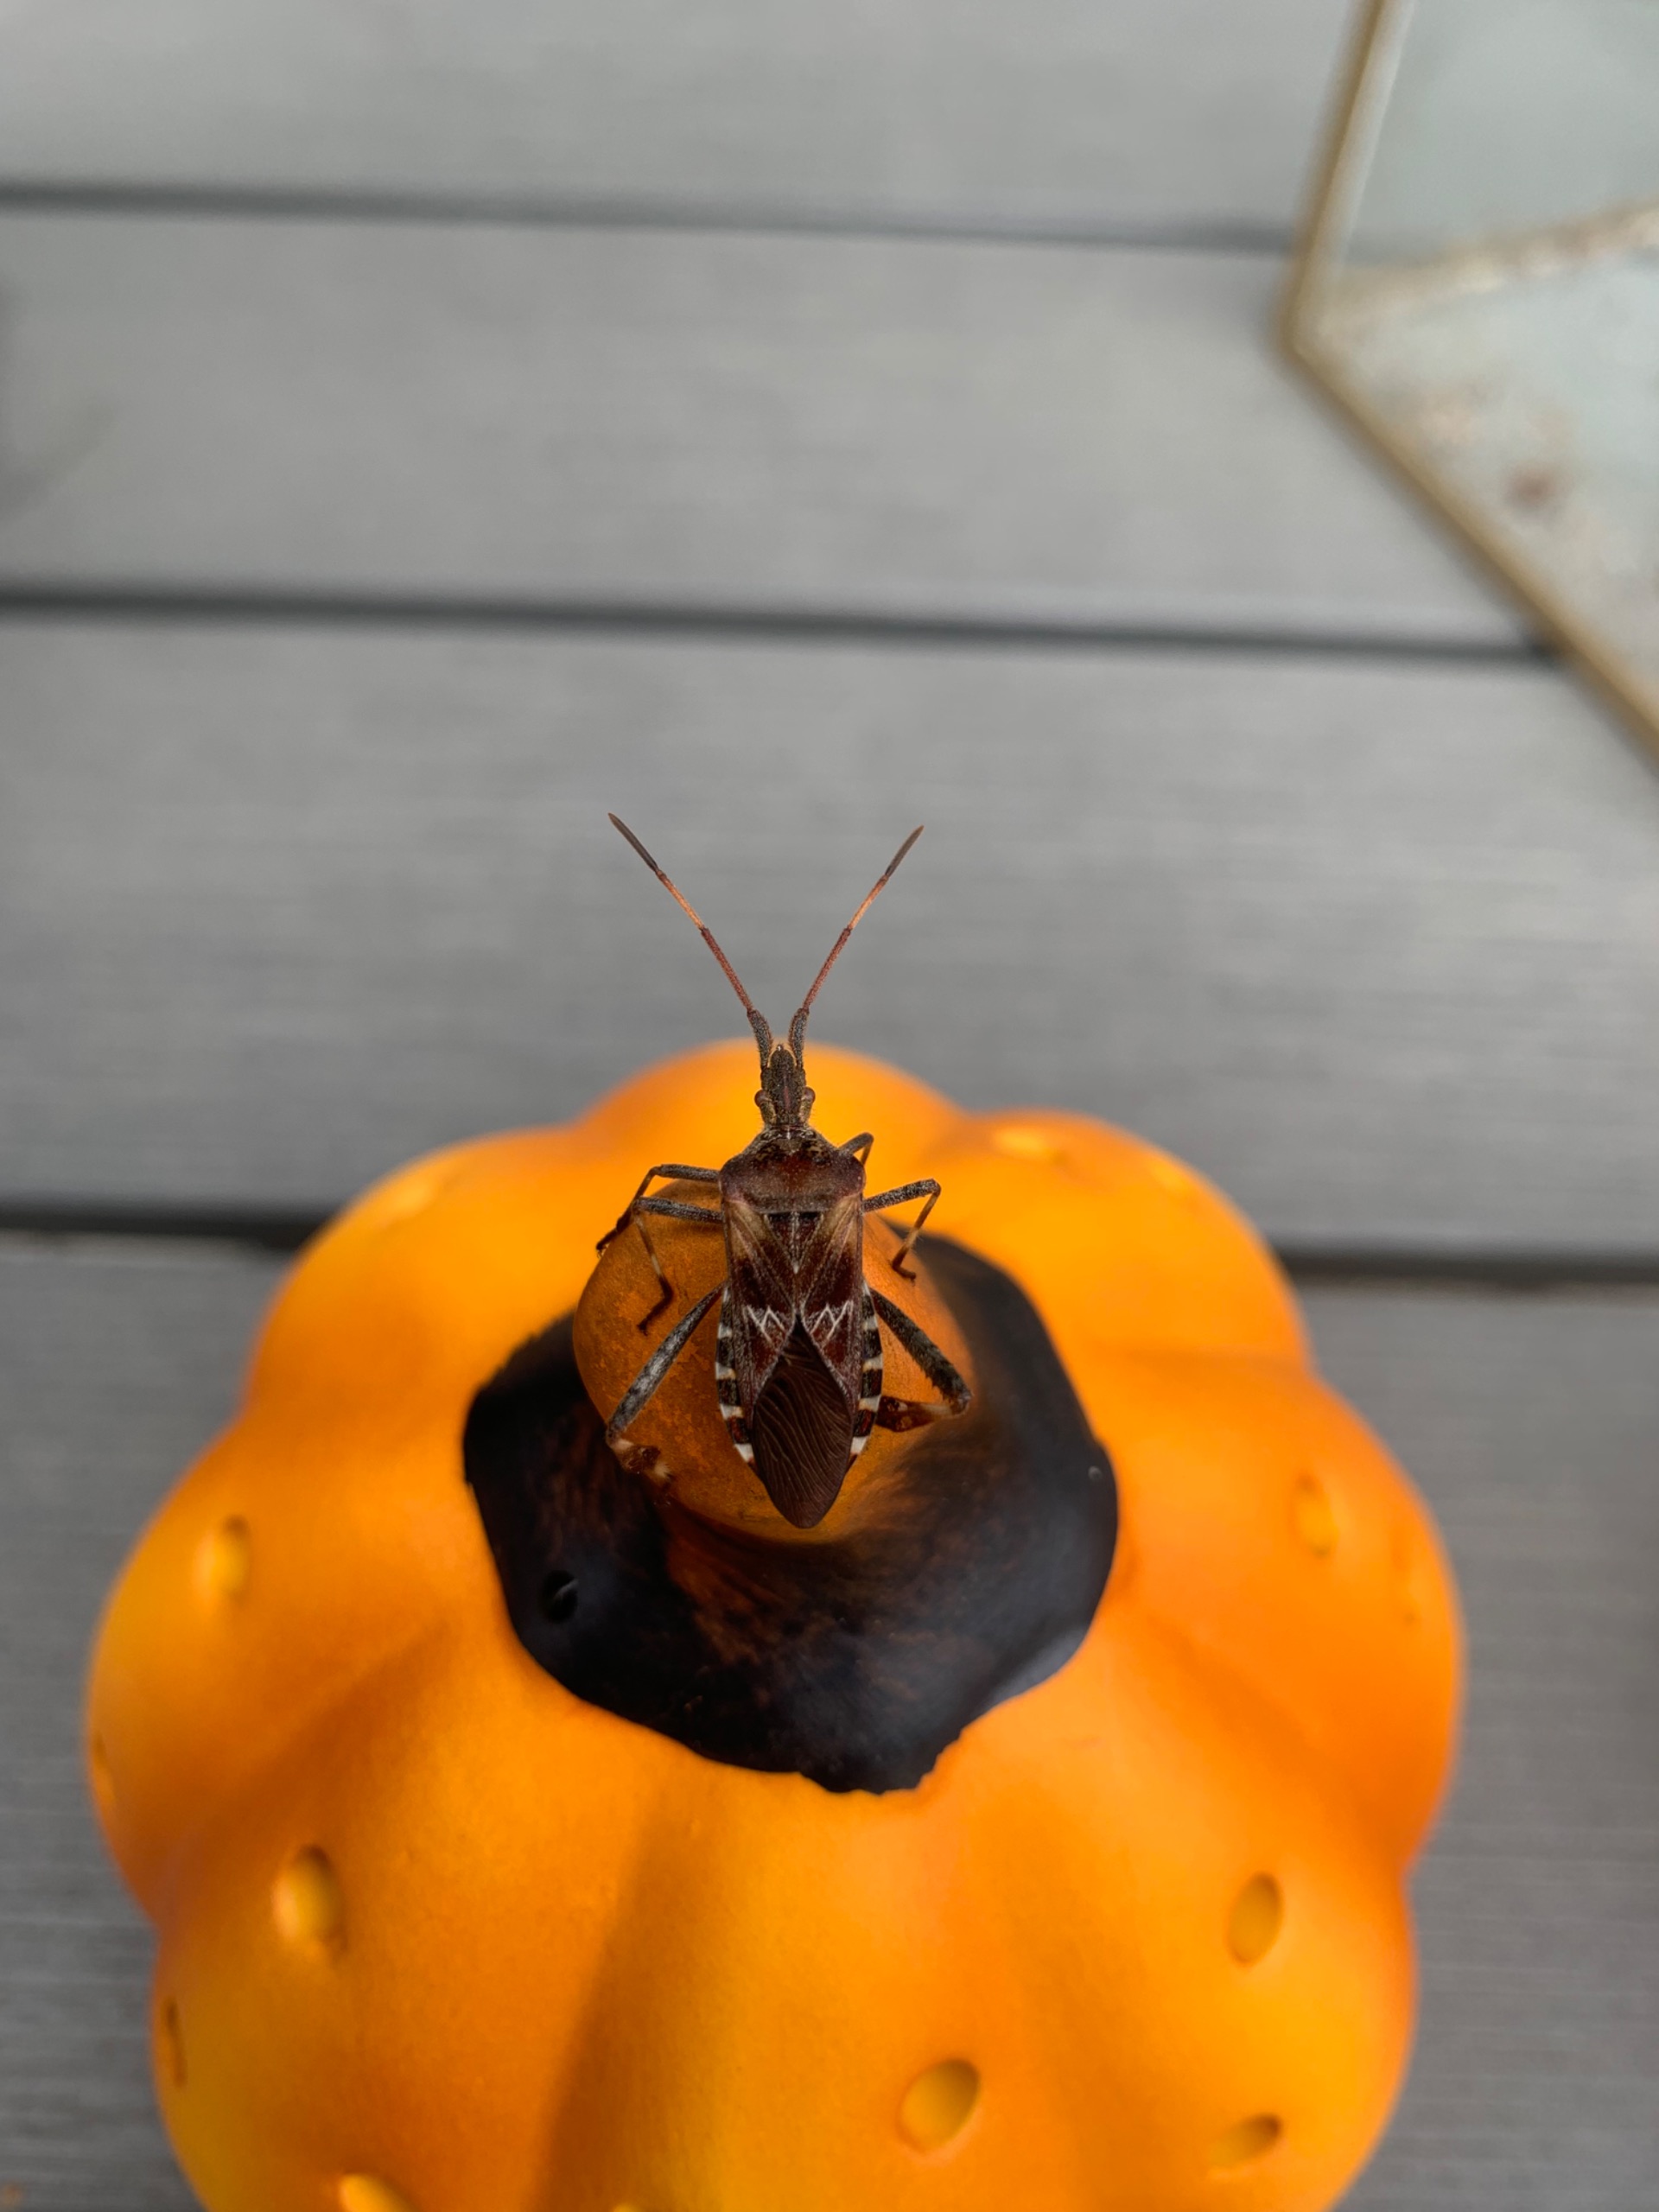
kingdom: Animalia
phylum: Arthropoda
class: Insecta
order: Hemiptera
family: Coreidae
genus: Leptoglossus
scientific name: Leptoglossus occidentalis
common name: Amerikansk fyrretæge
